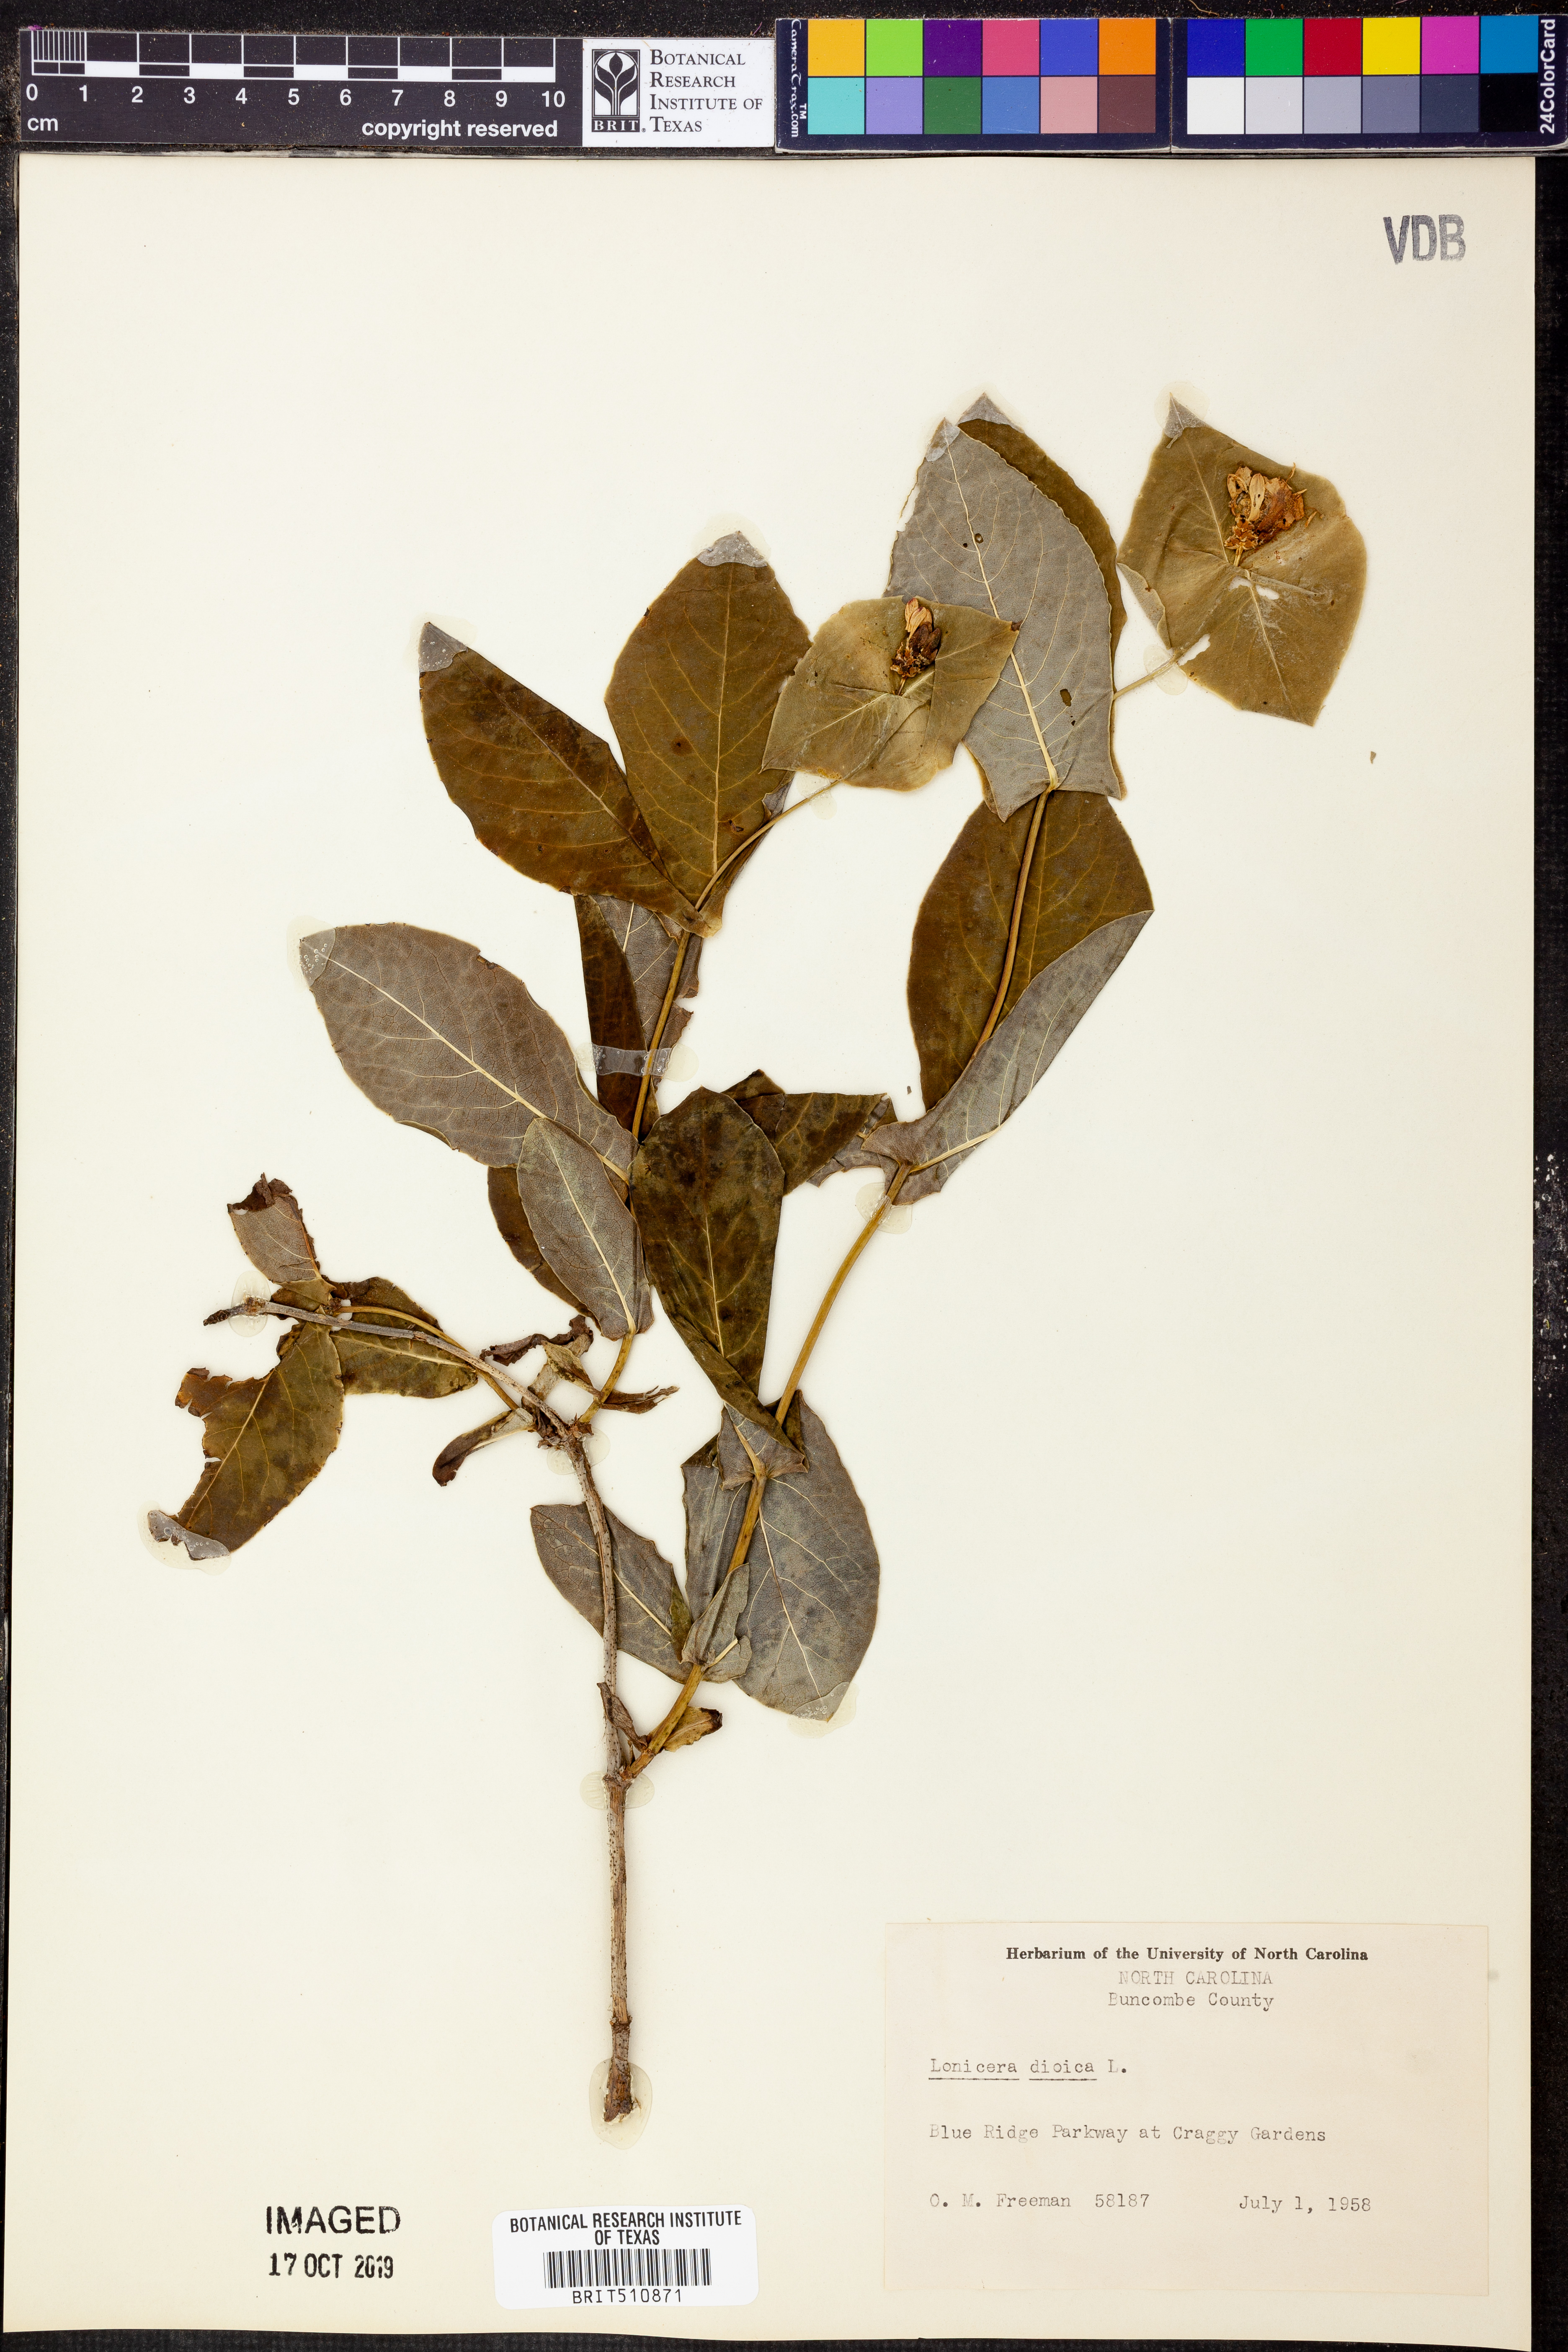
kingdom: Plantae
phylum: Tracheophyta
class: Magnoliopsida
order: Dipsacales
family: Caprifoliaceae
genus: Lonicera
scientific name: Lonicera dioica
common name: Limber honeysuckle
